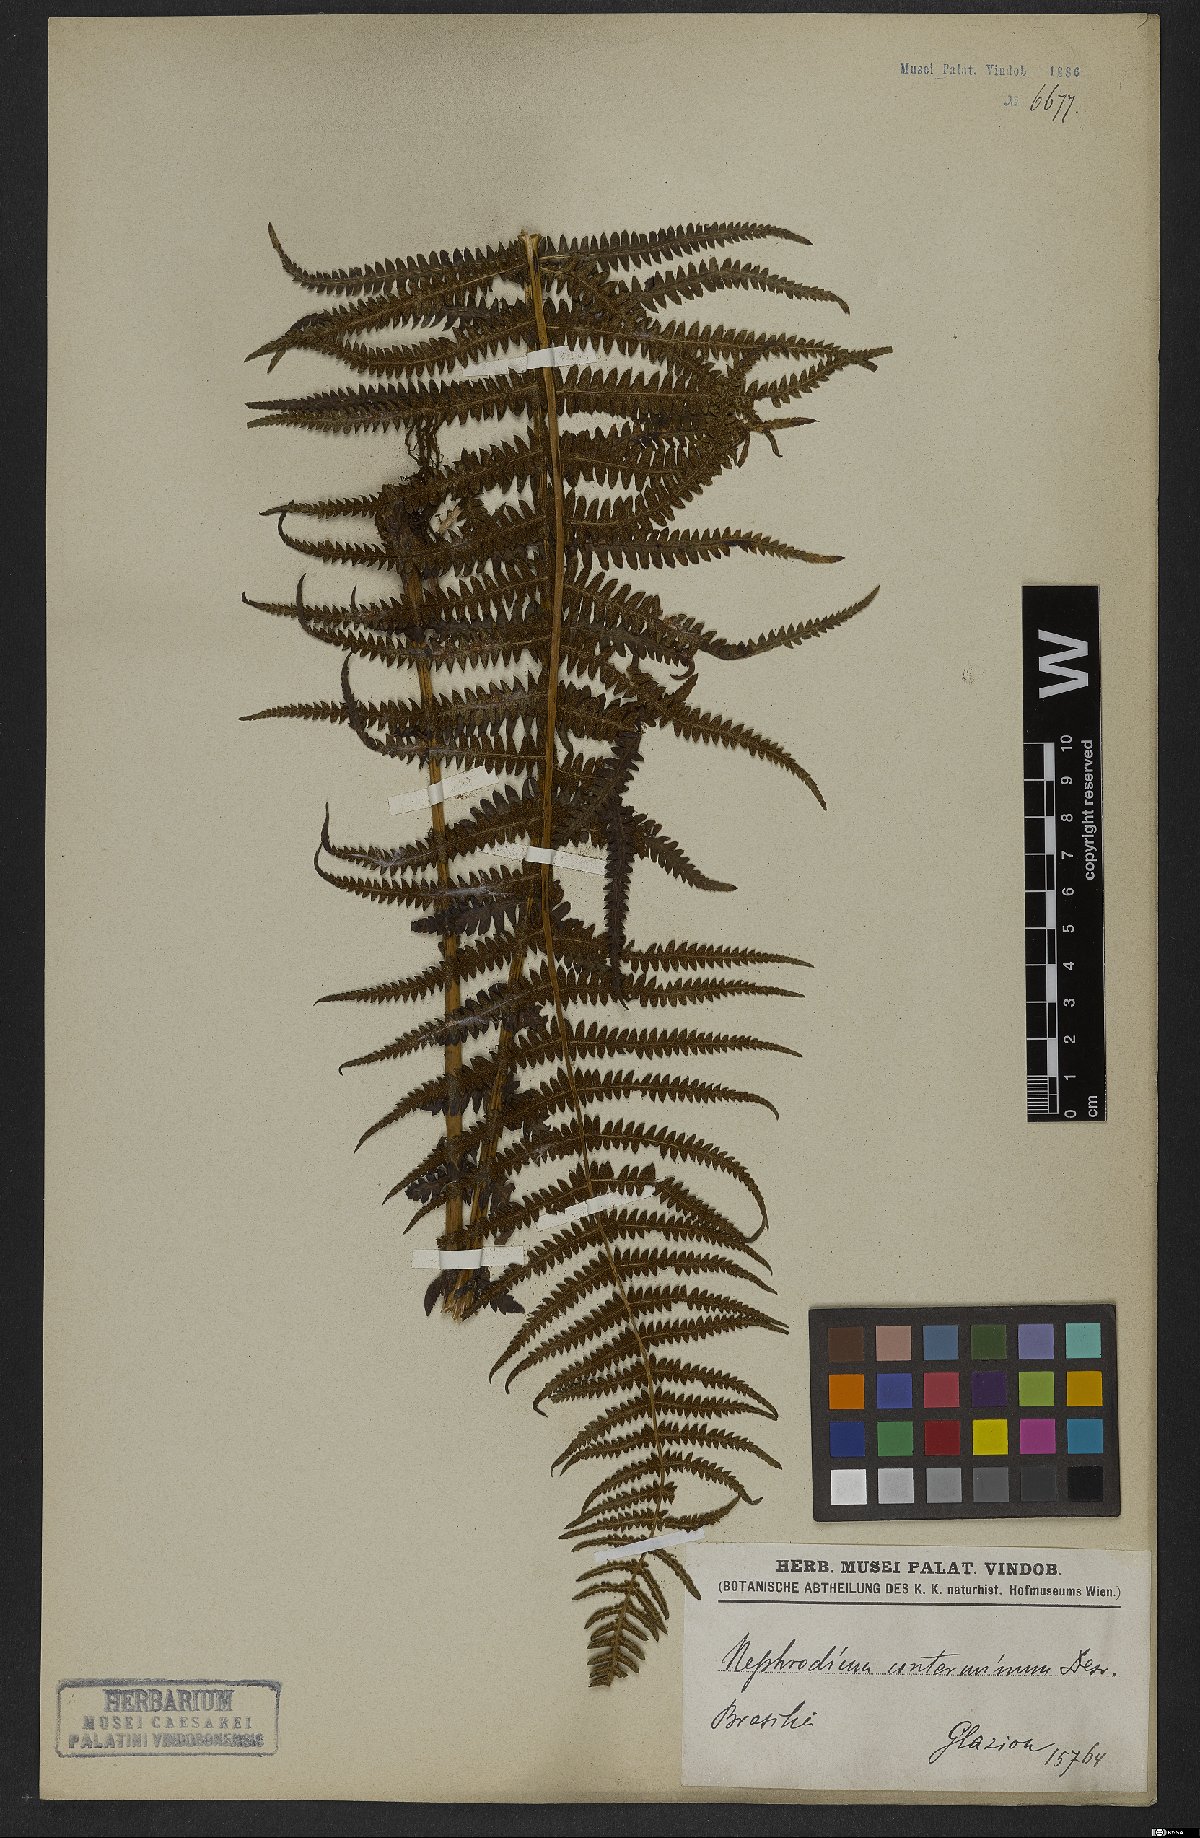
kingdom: Plantae
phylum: Tracheophyta
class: Polypodiopsida
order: Polypodiales
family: Thelypteridaceae
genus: Amauropelta
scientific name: Amauropelta opposita
